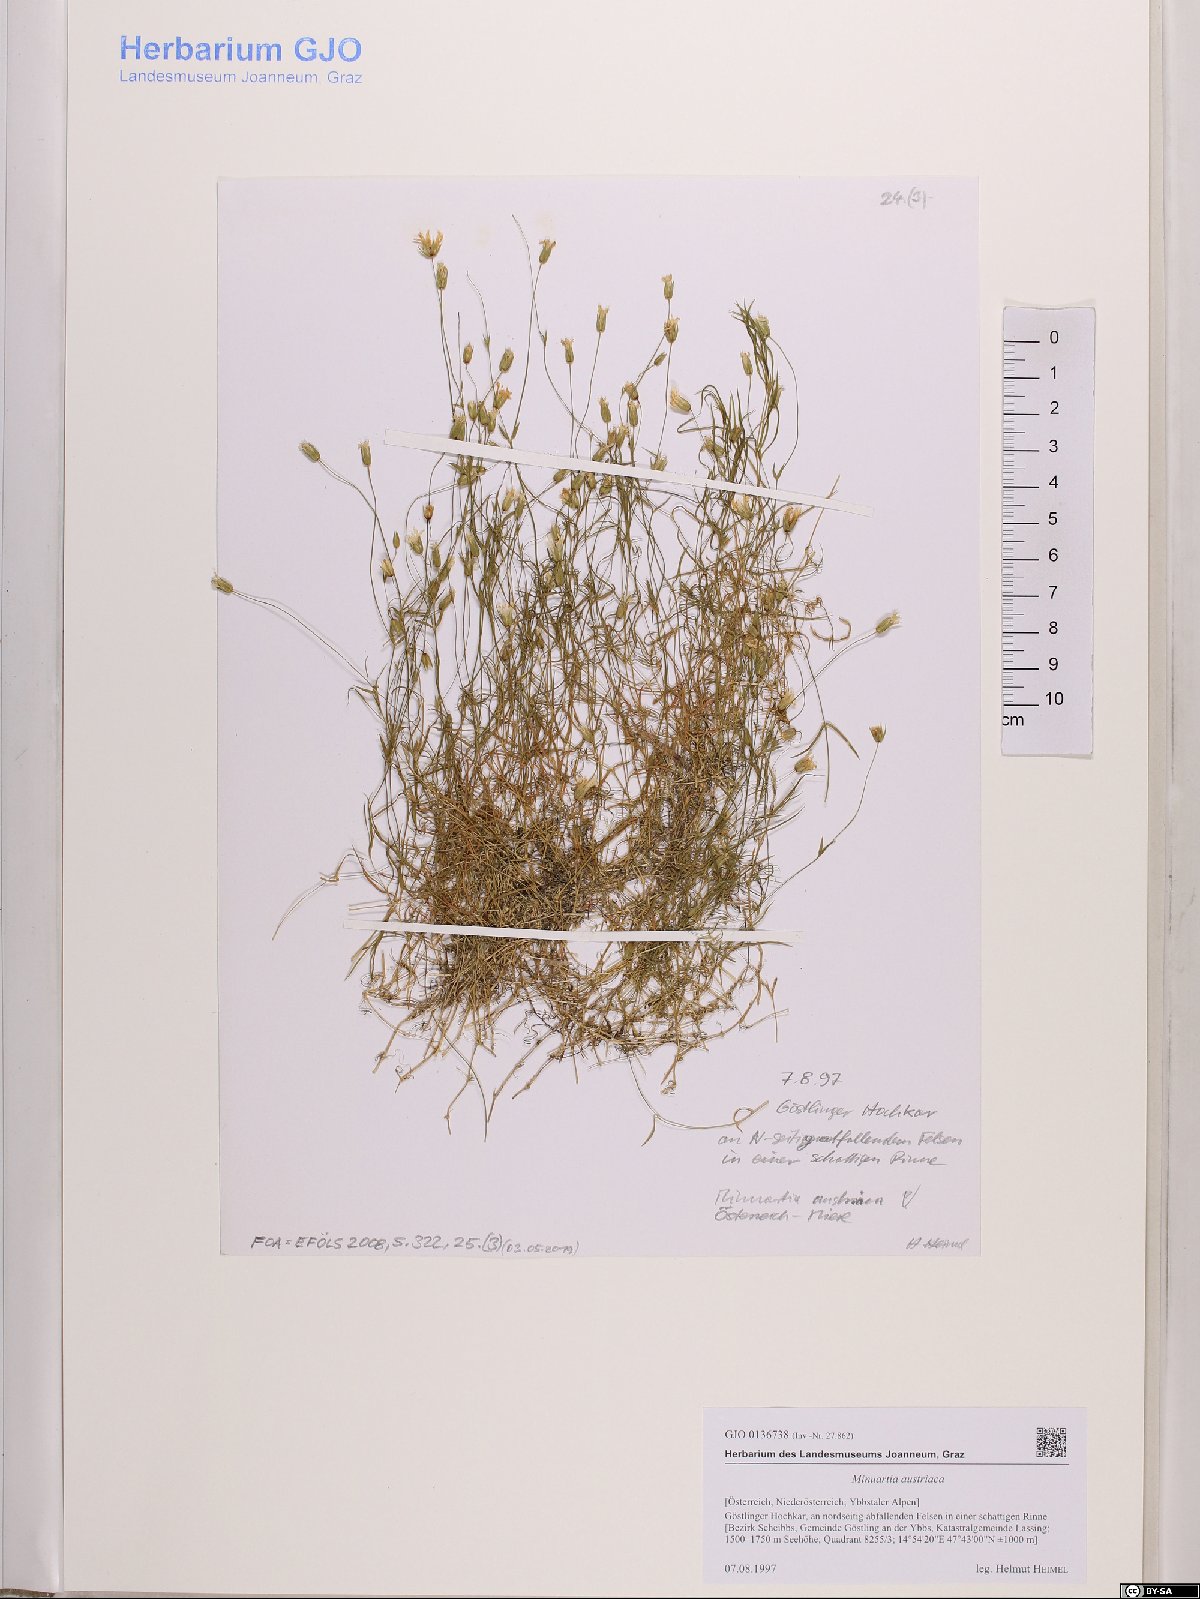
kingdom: Plantae
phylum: Tracheophyta
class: Magnoliopsida
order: Caryophyllales
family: Caryophyllaceae
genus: Sabulina
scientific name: Sabulina austriaca
